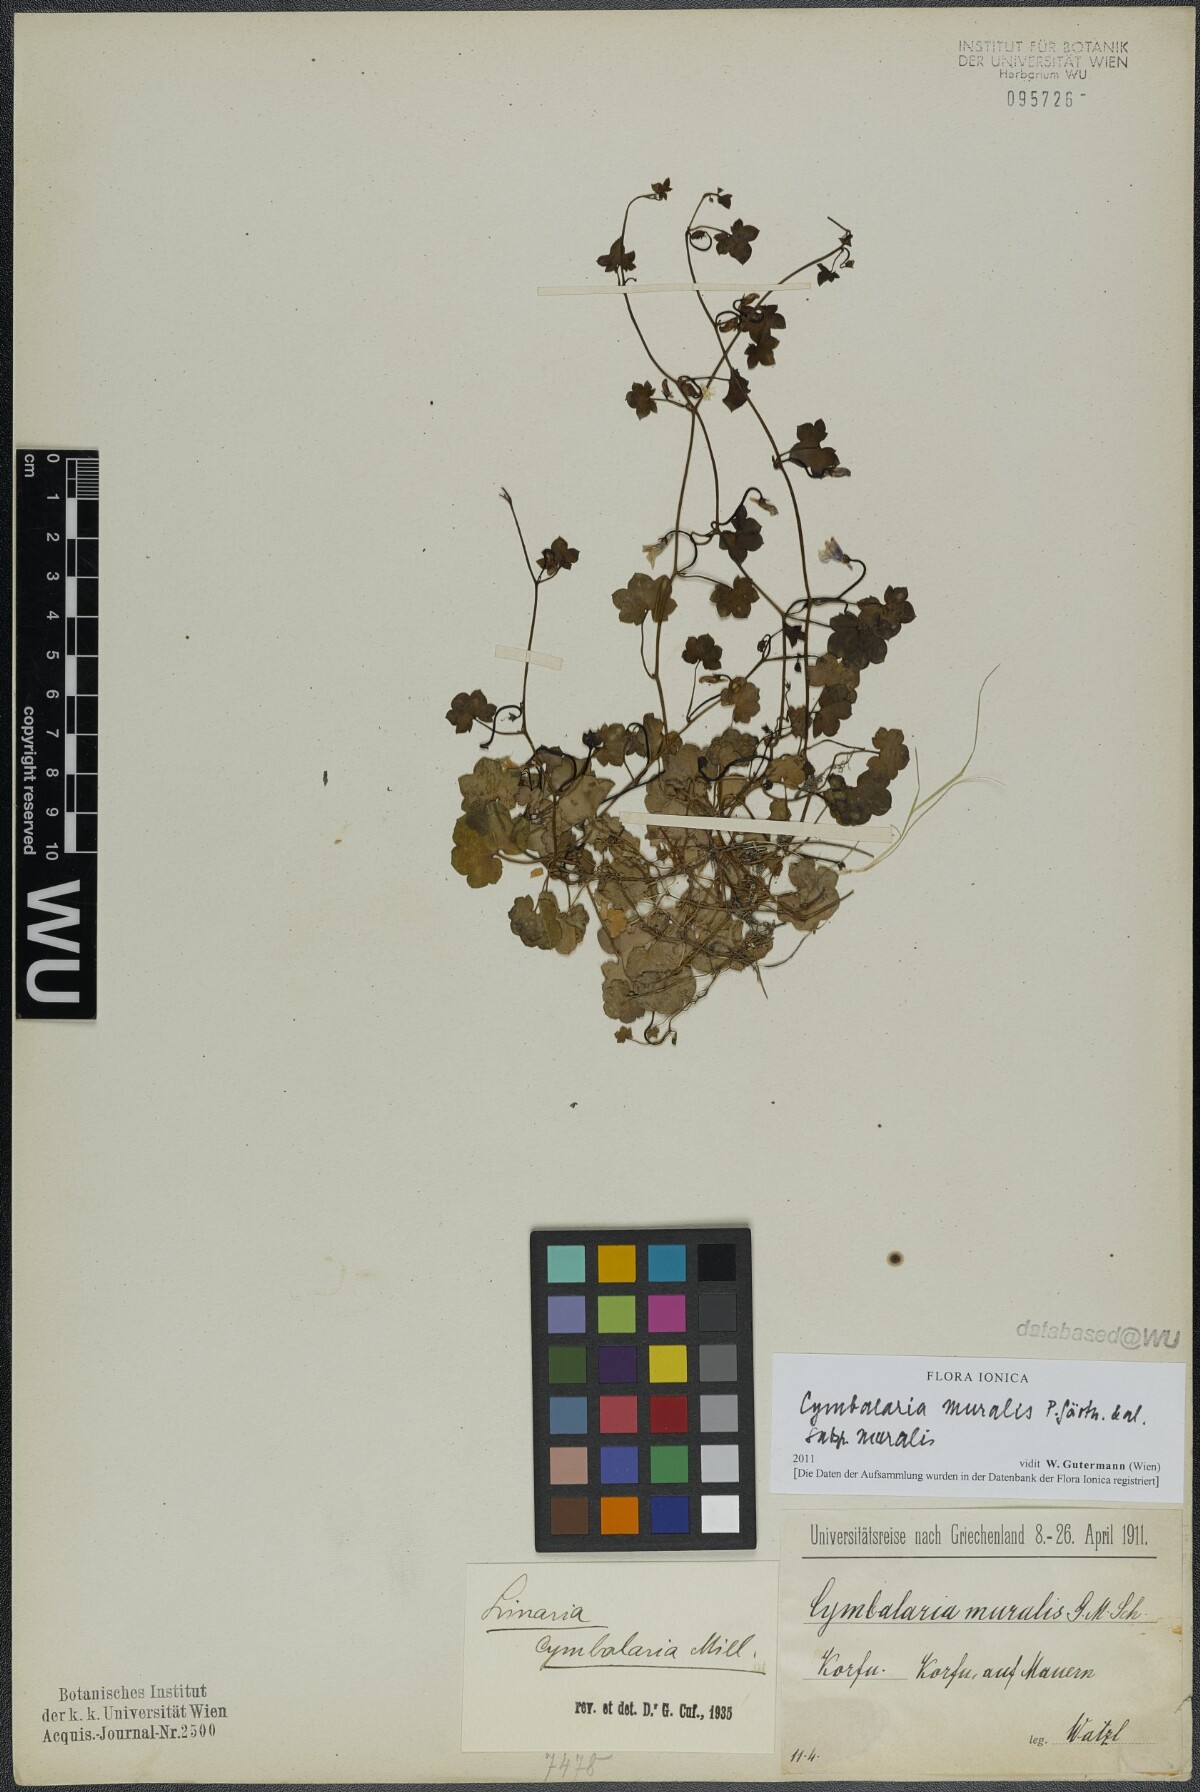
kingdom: Plantae
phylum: Tracheophyta
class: Magnoliopsida
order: Lamiales
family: Plantaginaceae
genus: Cymbalaria
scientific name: Cymbalaria muralis
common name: Ivy-leaved toadflax
